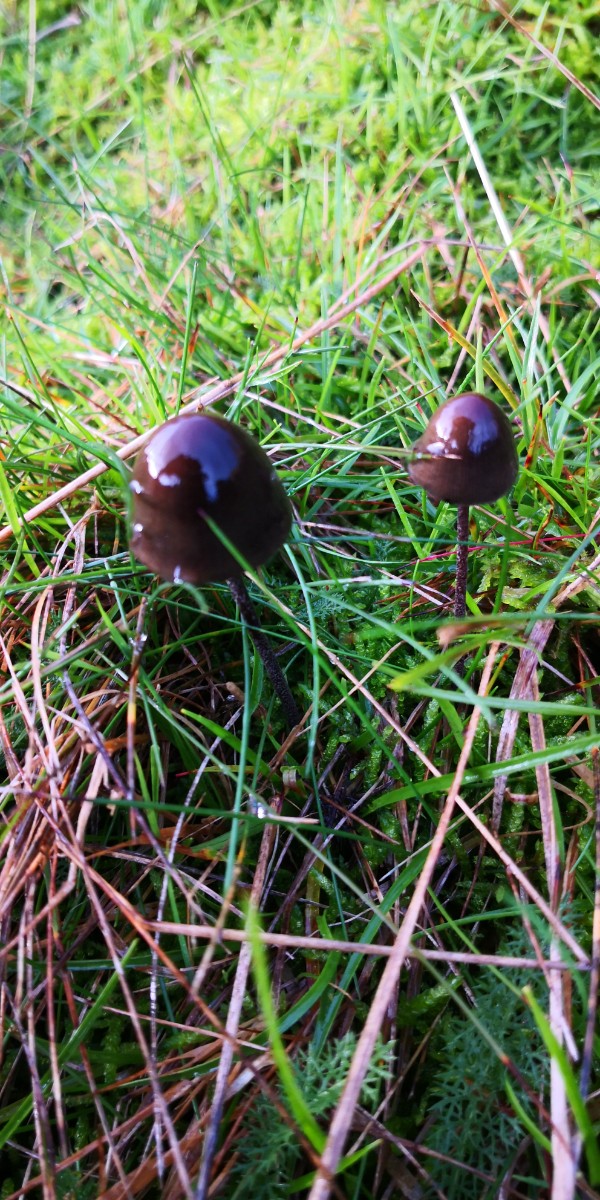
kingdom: Fungi
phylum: Basidiomycota
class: Agaricomycetes
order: Agaricales
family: Bolbitiaceae
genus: Panaeolus
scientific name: Panaeolus
